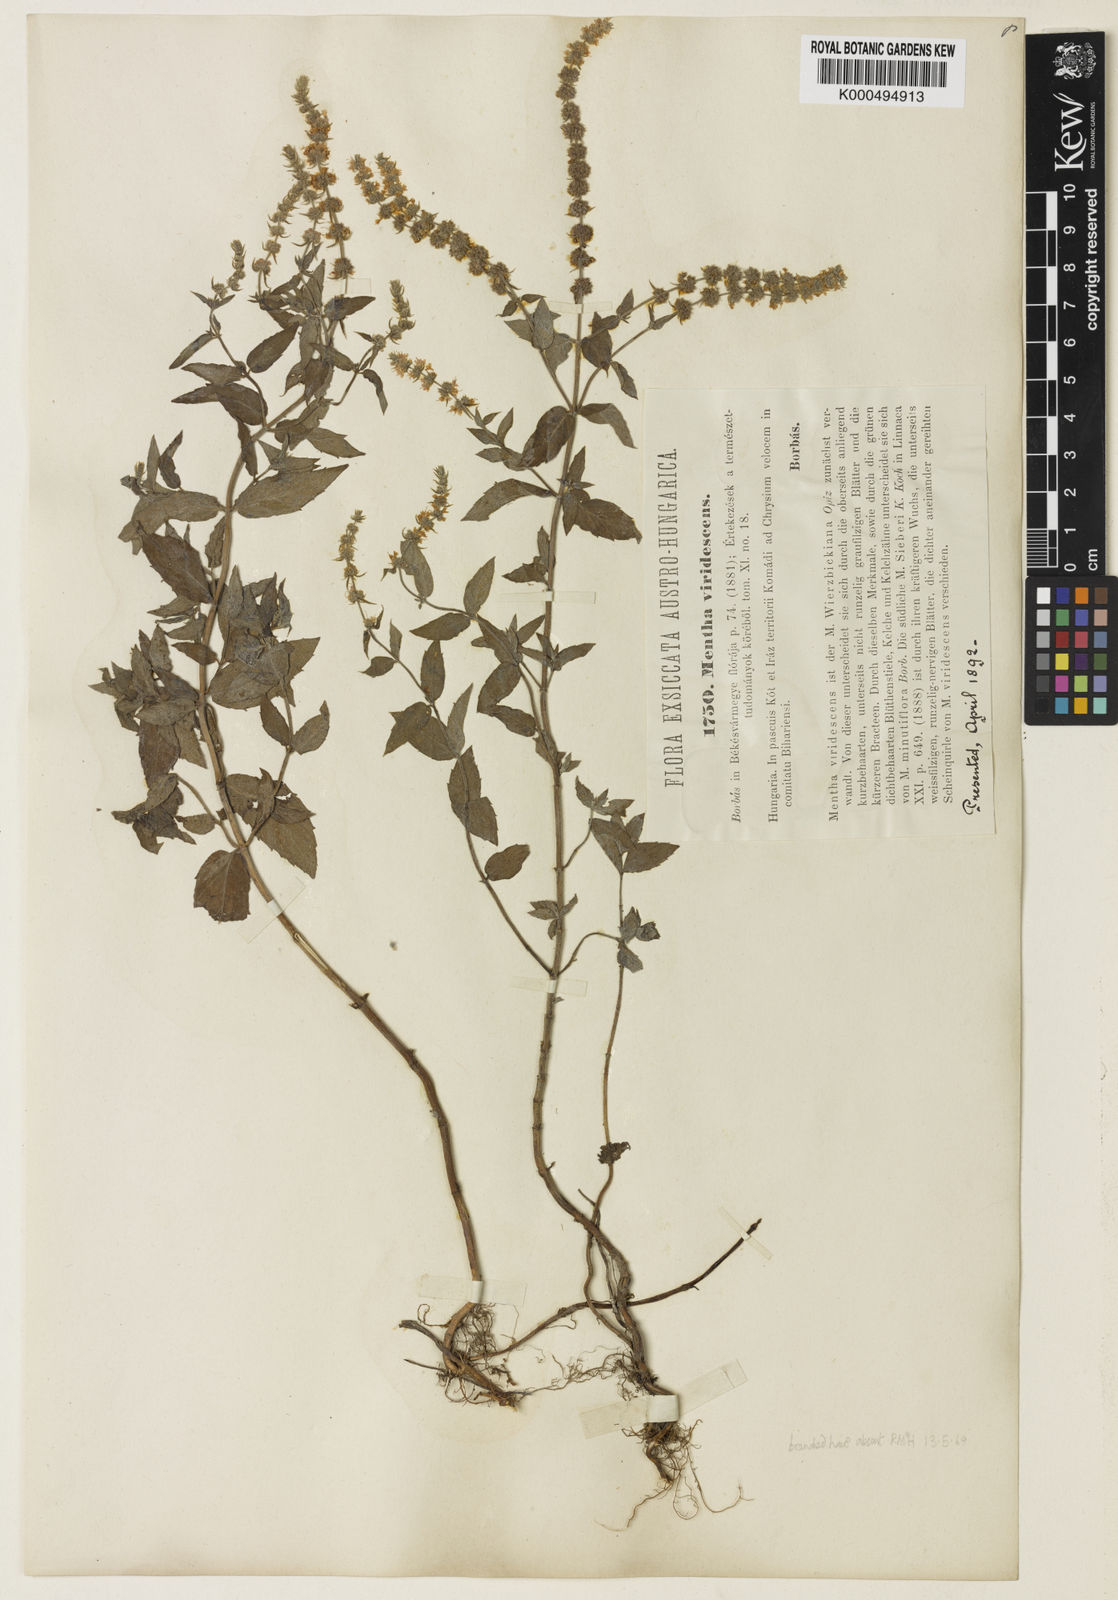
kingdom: Plantae
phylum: Tracheophyta
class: Magnoliopsida
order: Lamiales
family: Lamiaceae
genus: Mentha
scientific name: Mentha spicata
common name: Spearmint
